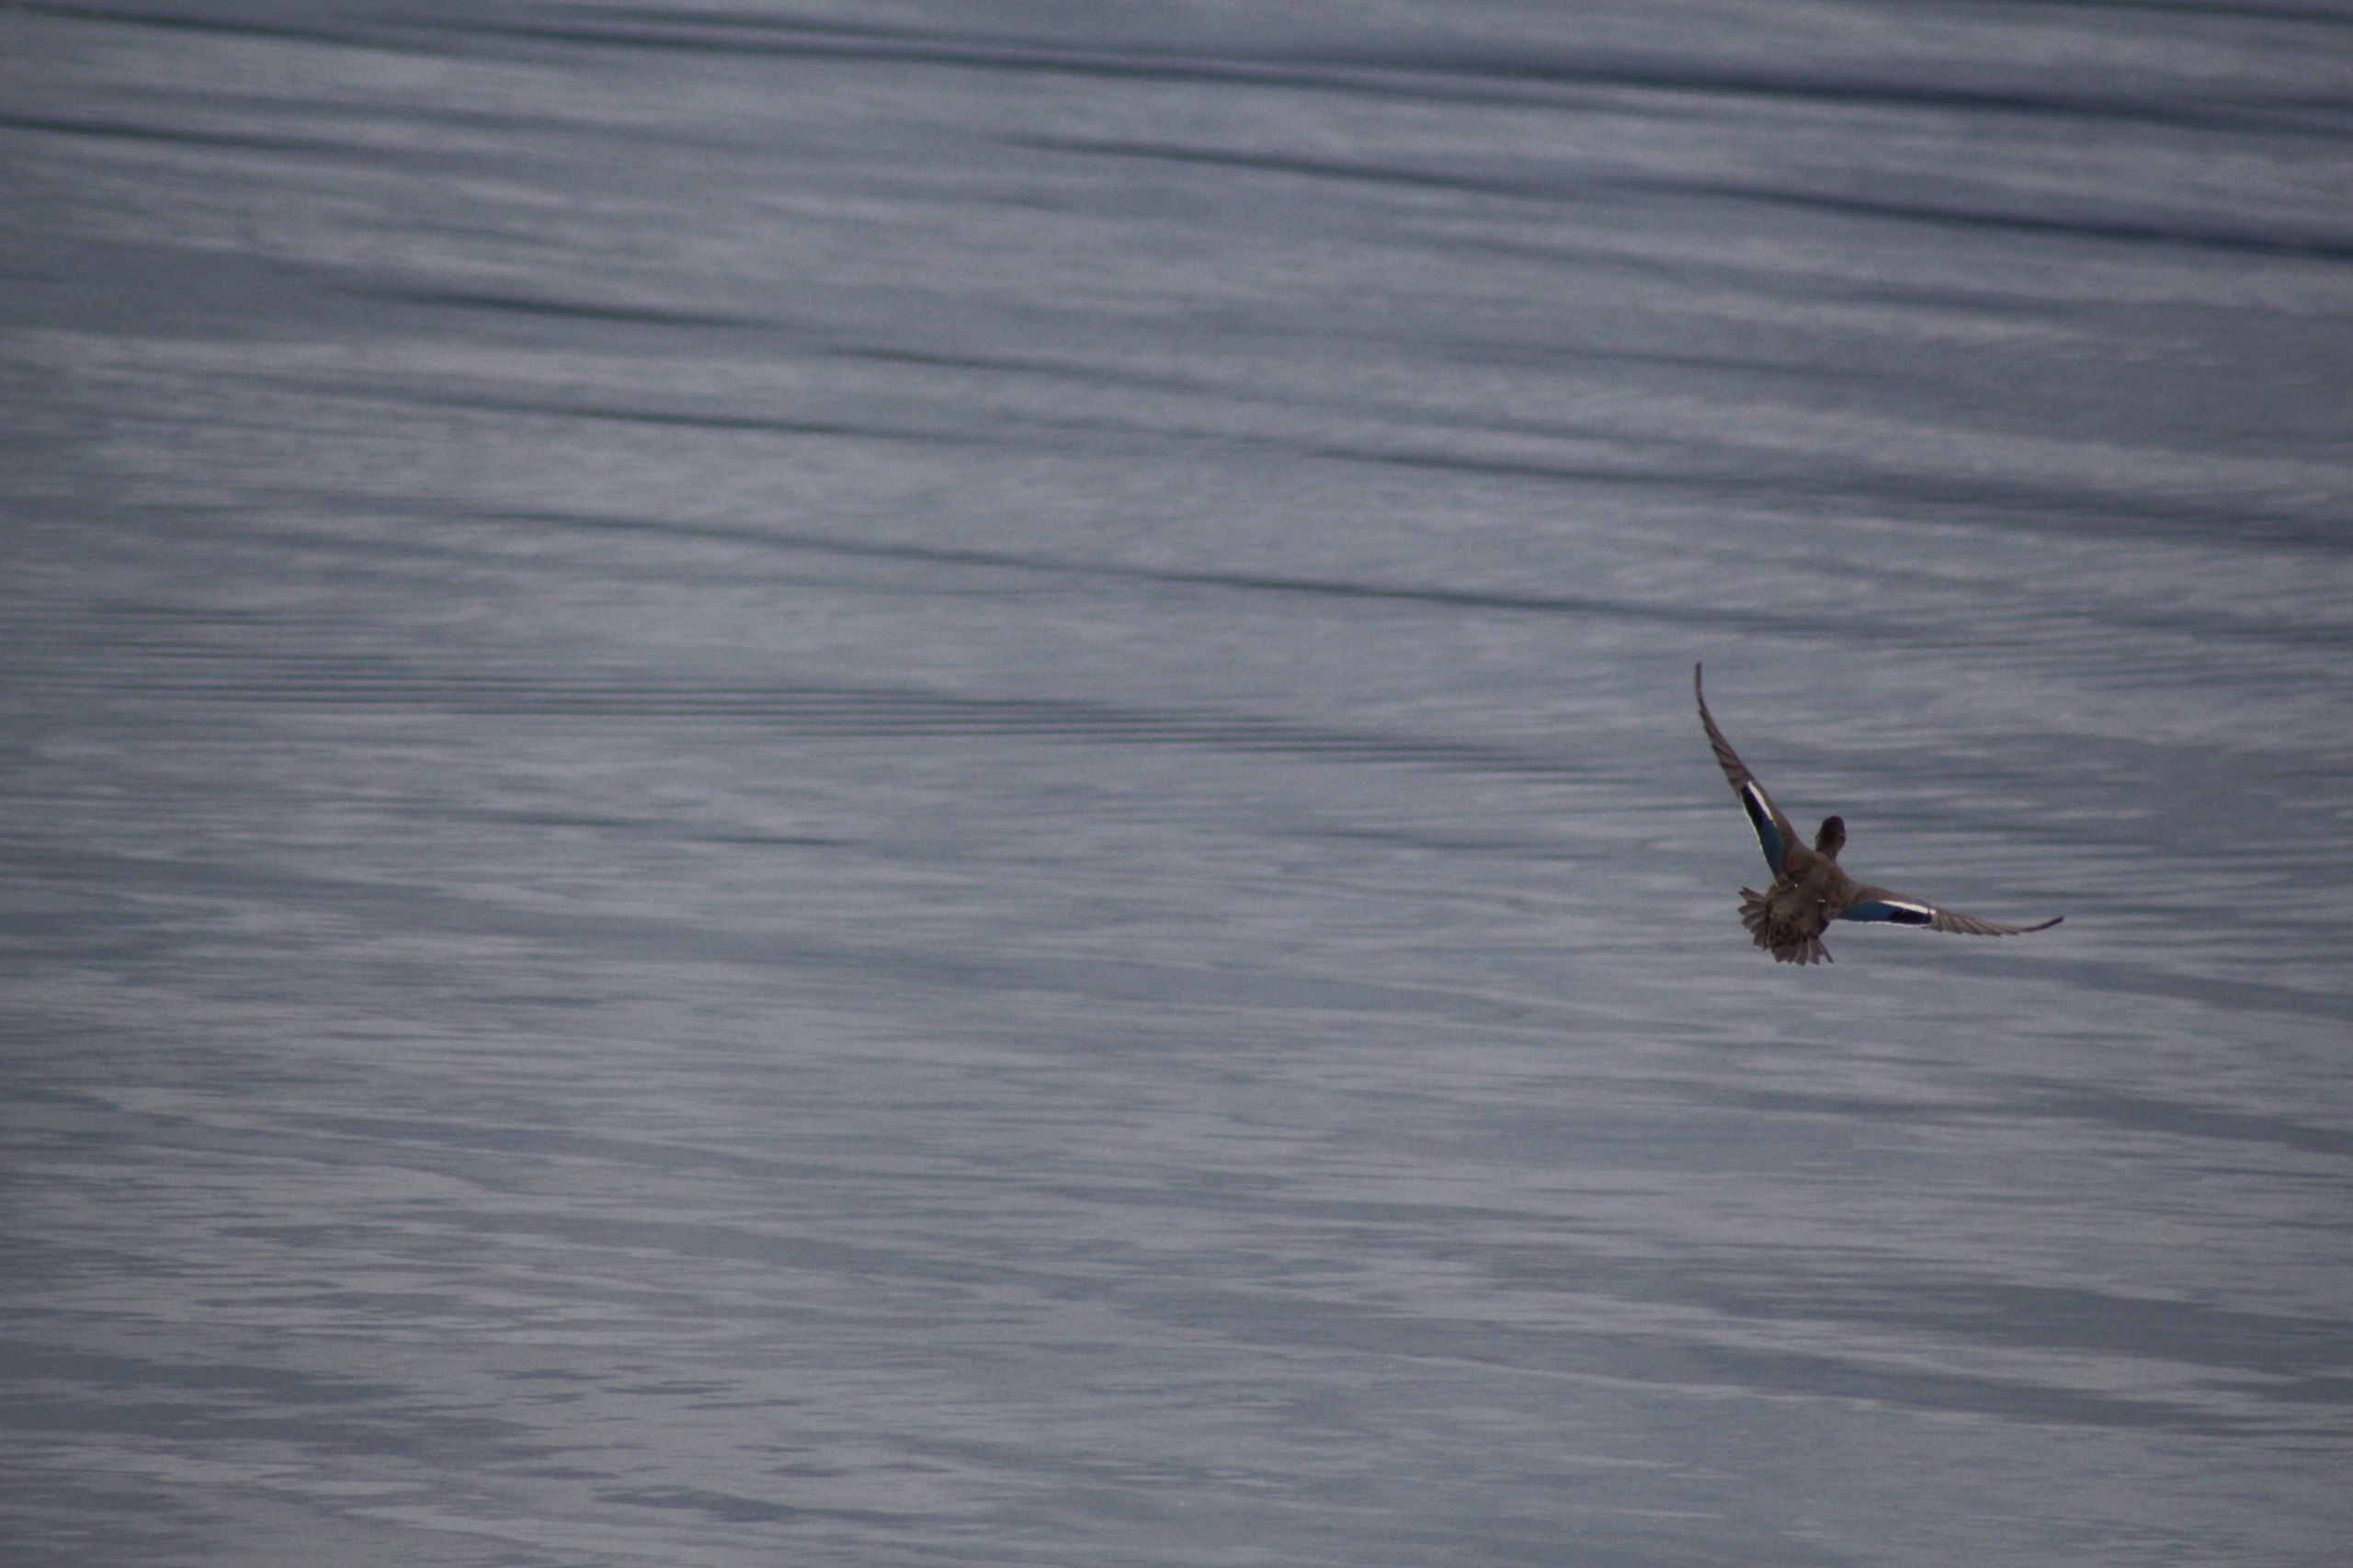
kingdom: Animalia
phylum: Chordata
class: Aves
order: Anseriformes
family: Anatidae
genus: Anas
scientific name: Anas crecca
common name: Krikand
